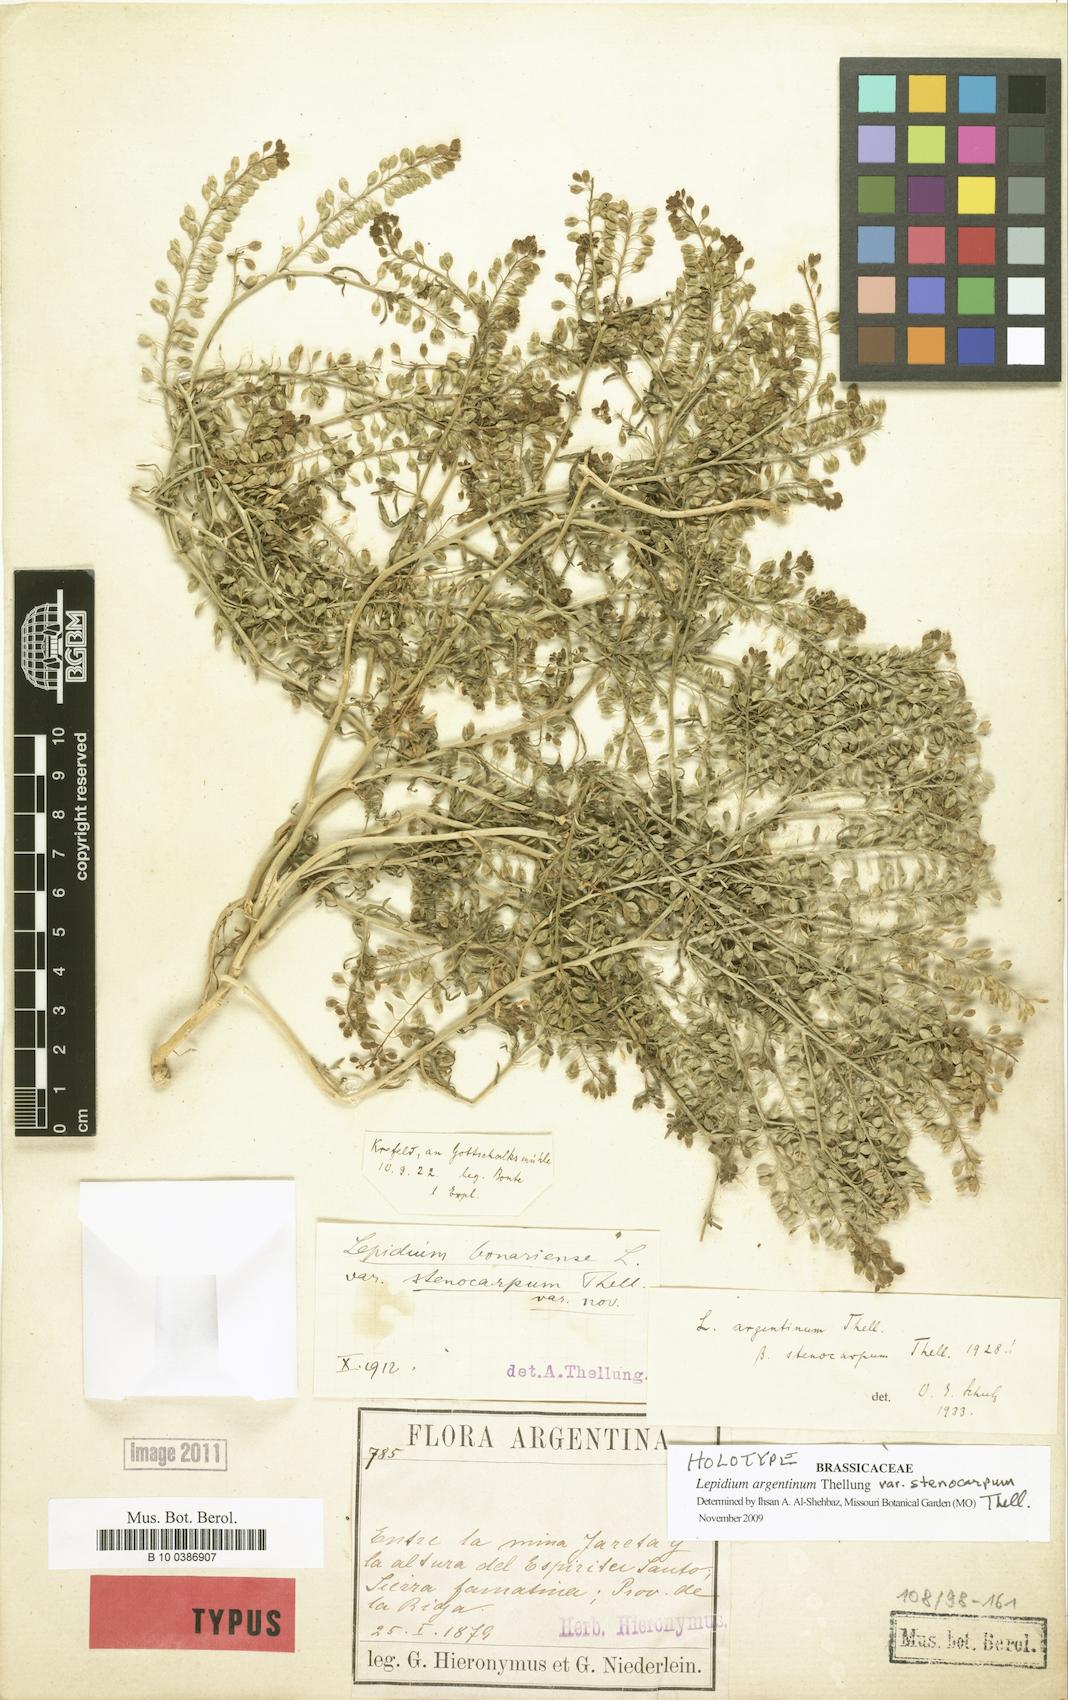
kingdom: Plantae
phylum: Tracheophyta
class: Magnoliopsida
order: Brassicales
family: Brassicaceae
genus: Lepidium
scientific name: Lepidium argentinum
